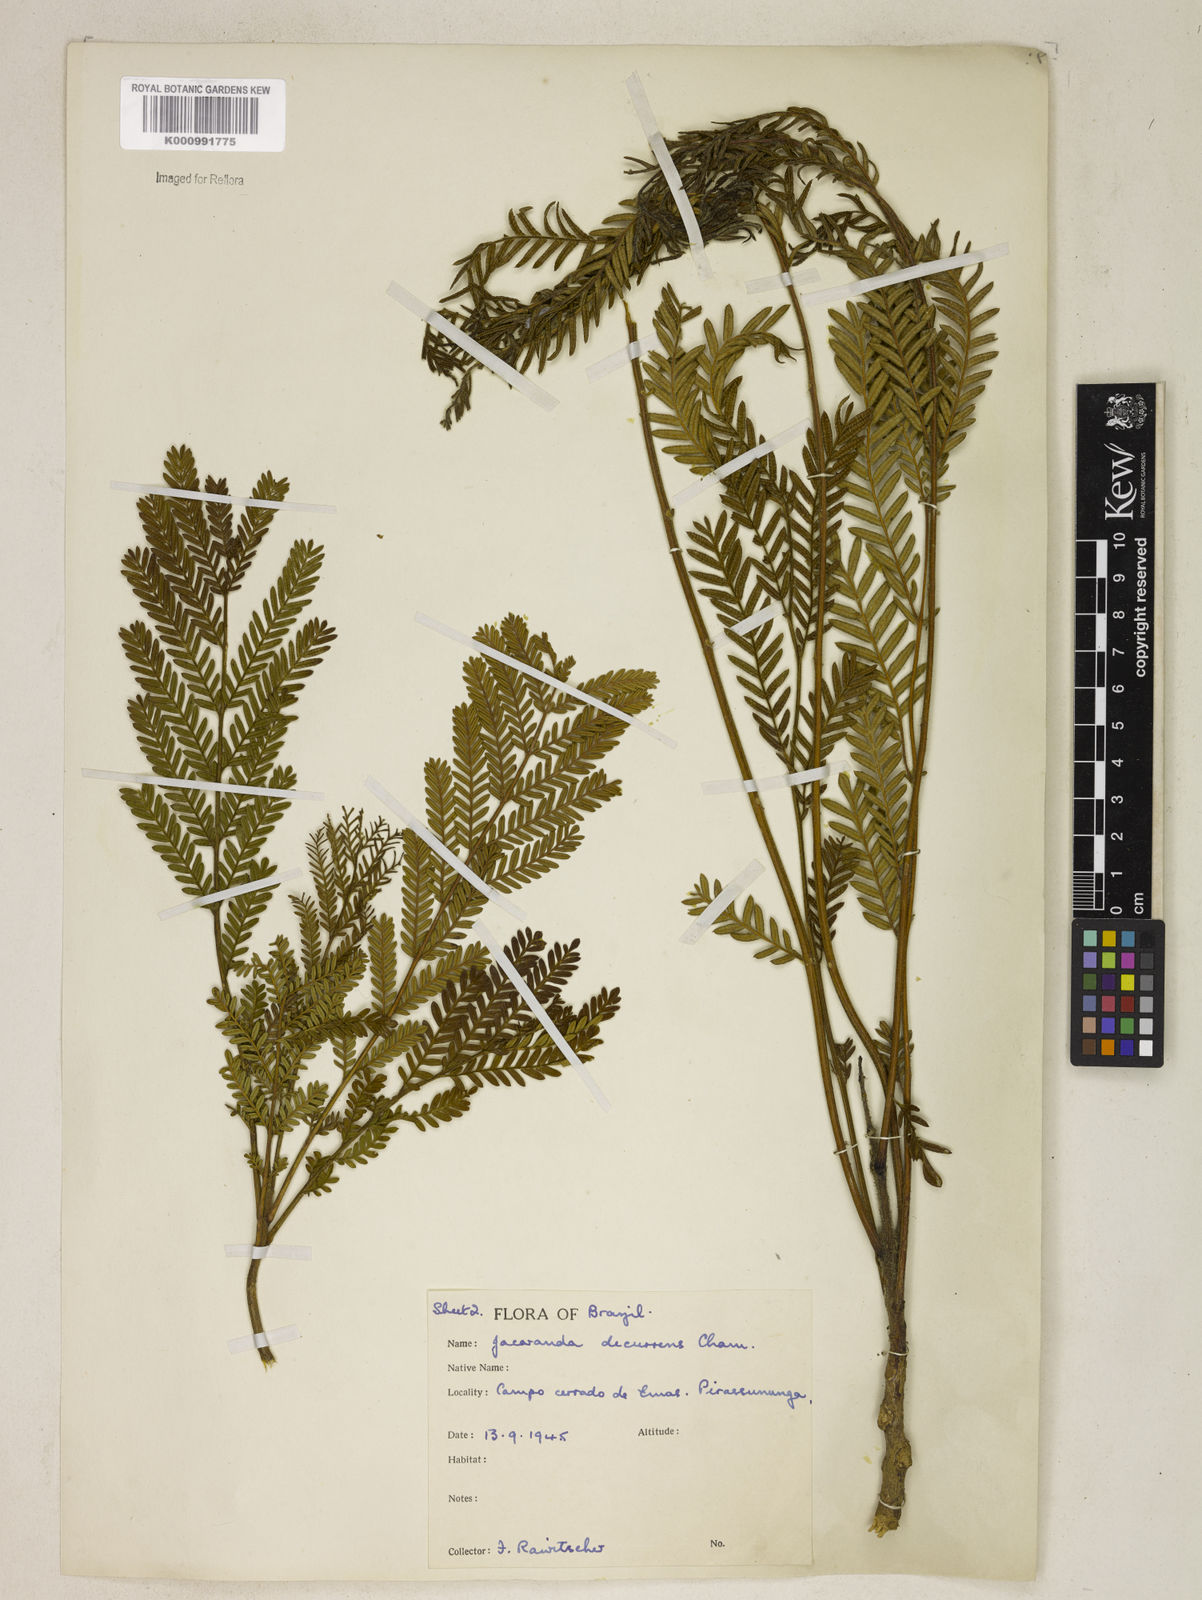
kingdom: Plantae
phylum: Tracheophyta
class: Magnoliopsida
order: Lamiales
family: Bignoniaceae
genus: Jacaranda
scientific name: Jacaranda decurrens
